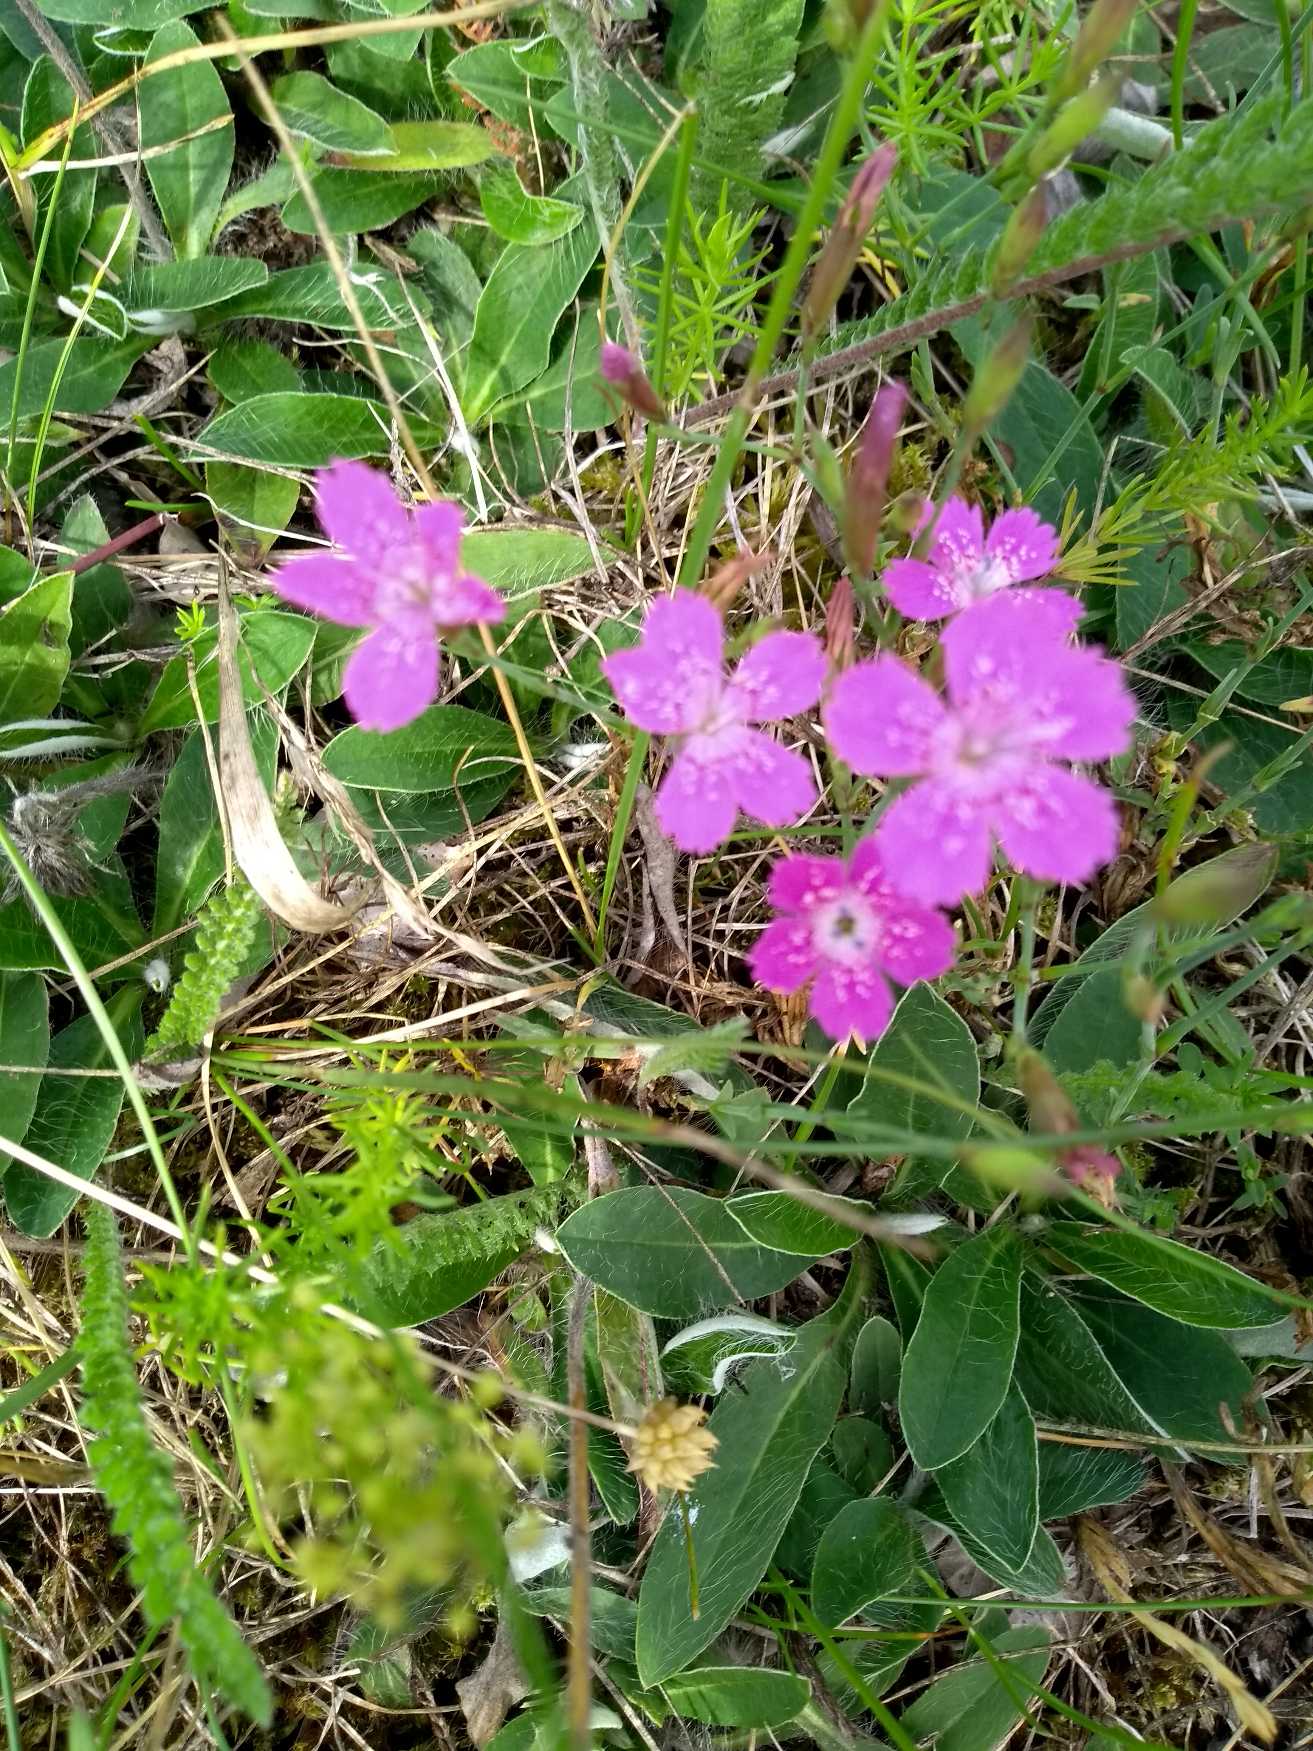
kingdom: Plantae
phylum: Tracheophyta
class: Magnoliopsida
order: Caryophyllales
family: Caryophyllaceae
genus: Dianthus
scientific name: Dianthus deltoides
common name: Bakke-nellike
